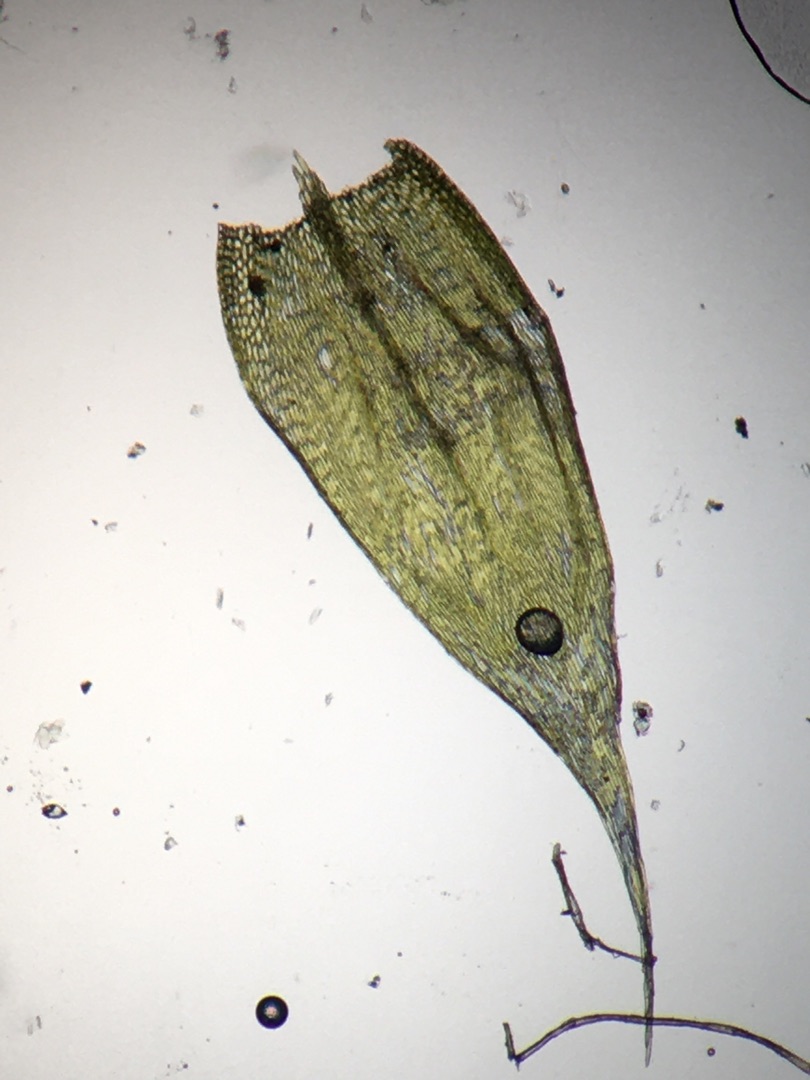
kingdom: Plantae
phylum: Bryophyta
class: Bryopsida
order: Hypnales
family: Brachytheciaceae
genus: Brachythecium
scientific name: Brachythecium albicans
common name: Hvidlig kortkapsel
